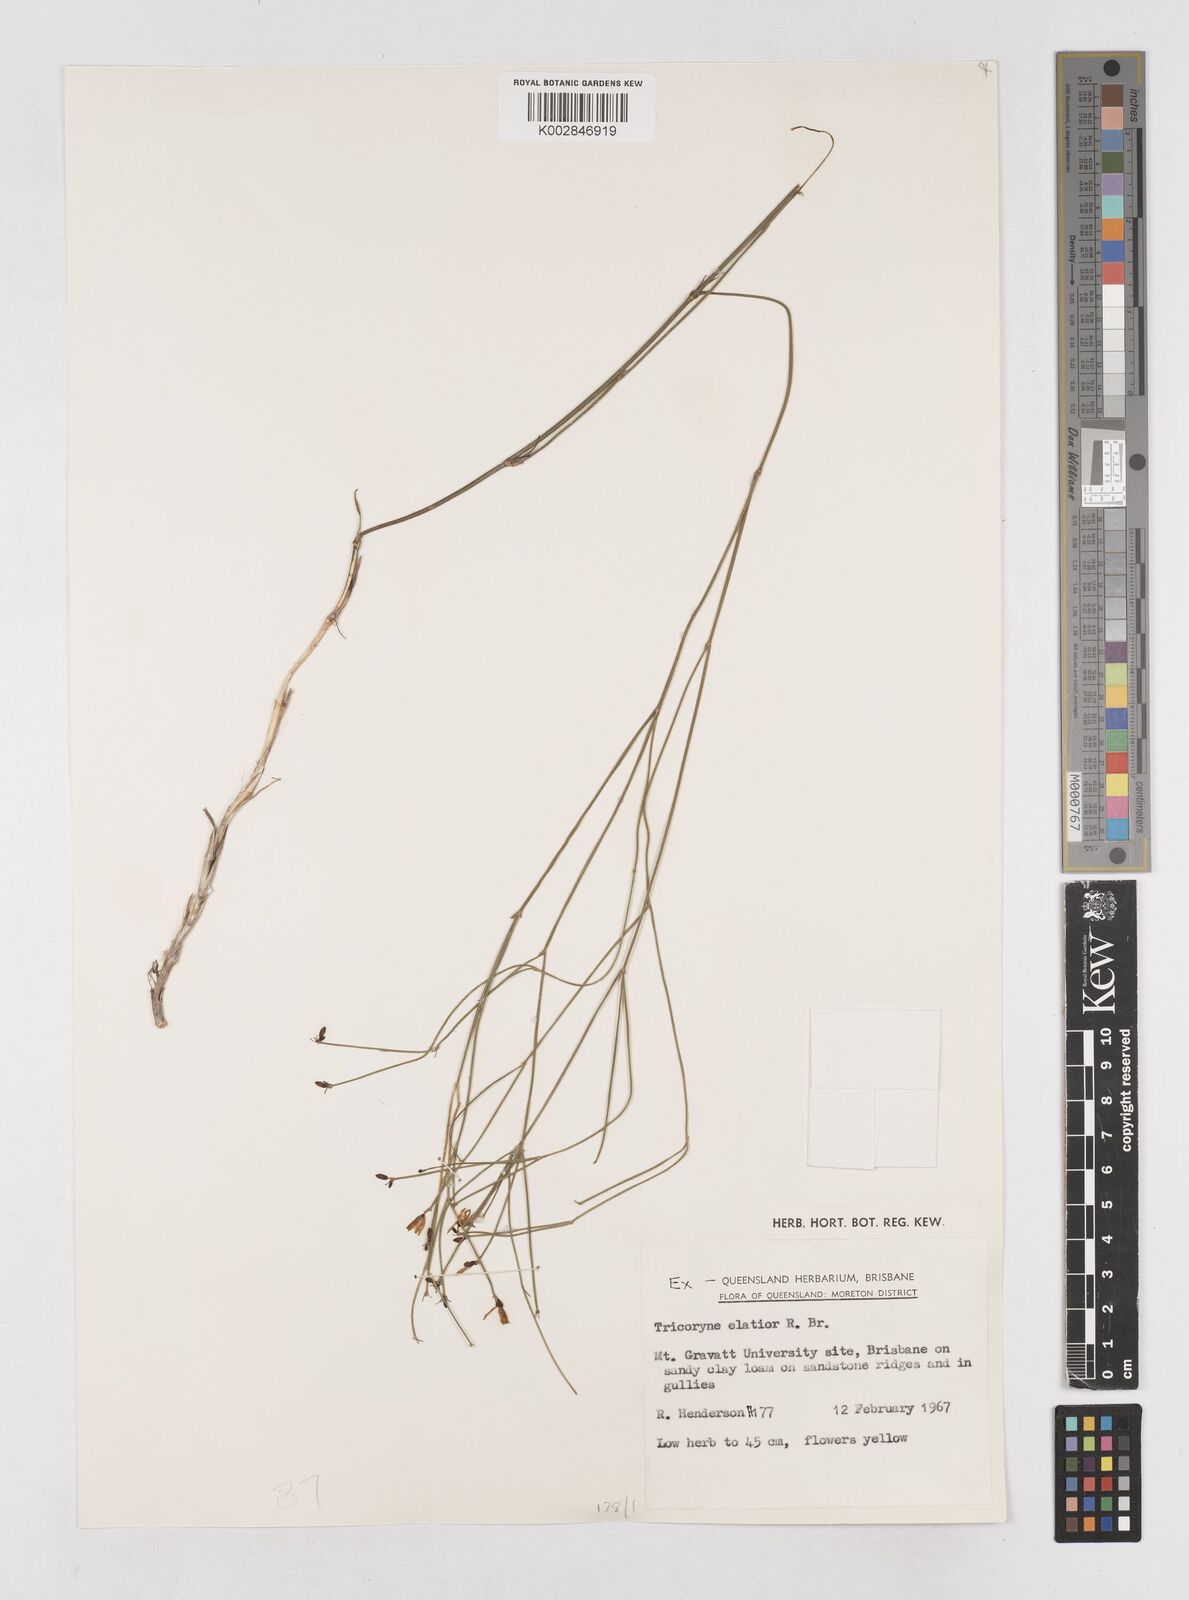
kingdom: Plantae
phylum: Tracheophyta
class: Liliopsida
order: Asparagales
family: Asphodelaceae
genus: Tricoryne
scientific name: Tricoryne elatior
